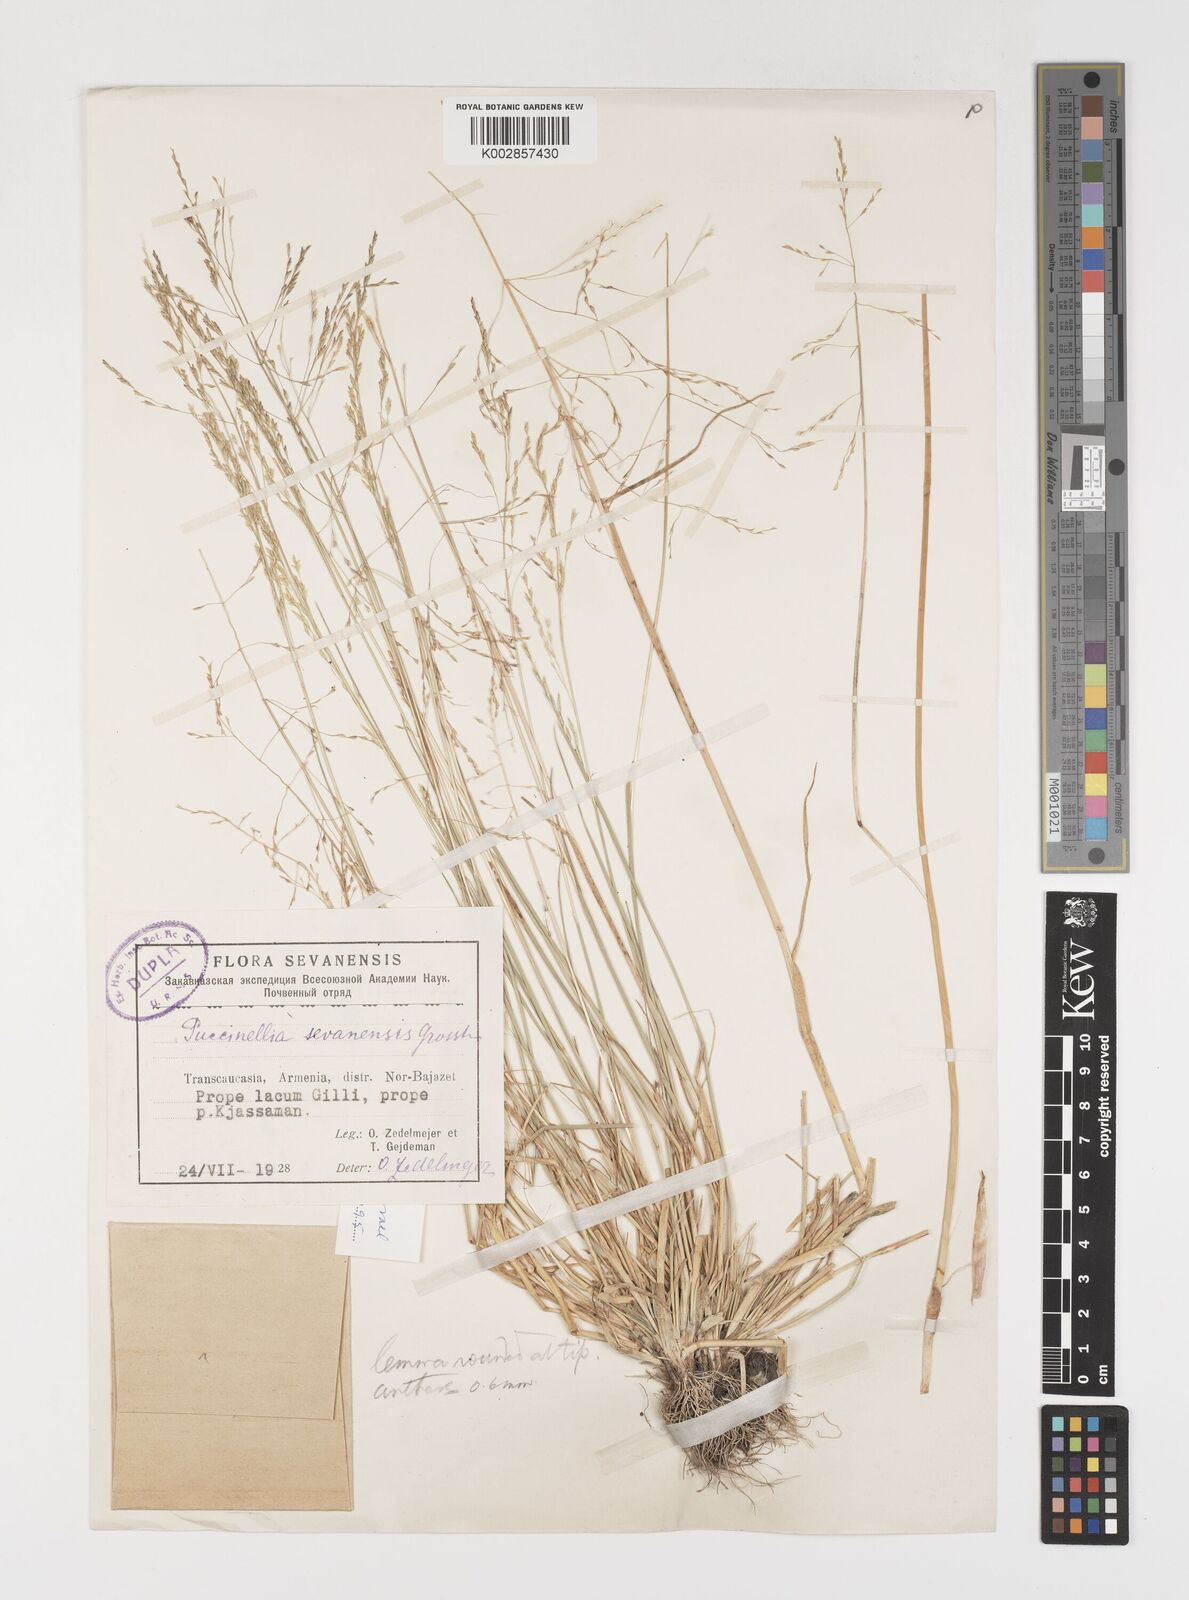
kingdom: Plantae
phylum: Tracheophyta
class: Liliopsida
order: Poales
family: Poaceae
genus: Puccinellia
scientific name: Puccinellia distans
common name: Weeping alkaligrass
